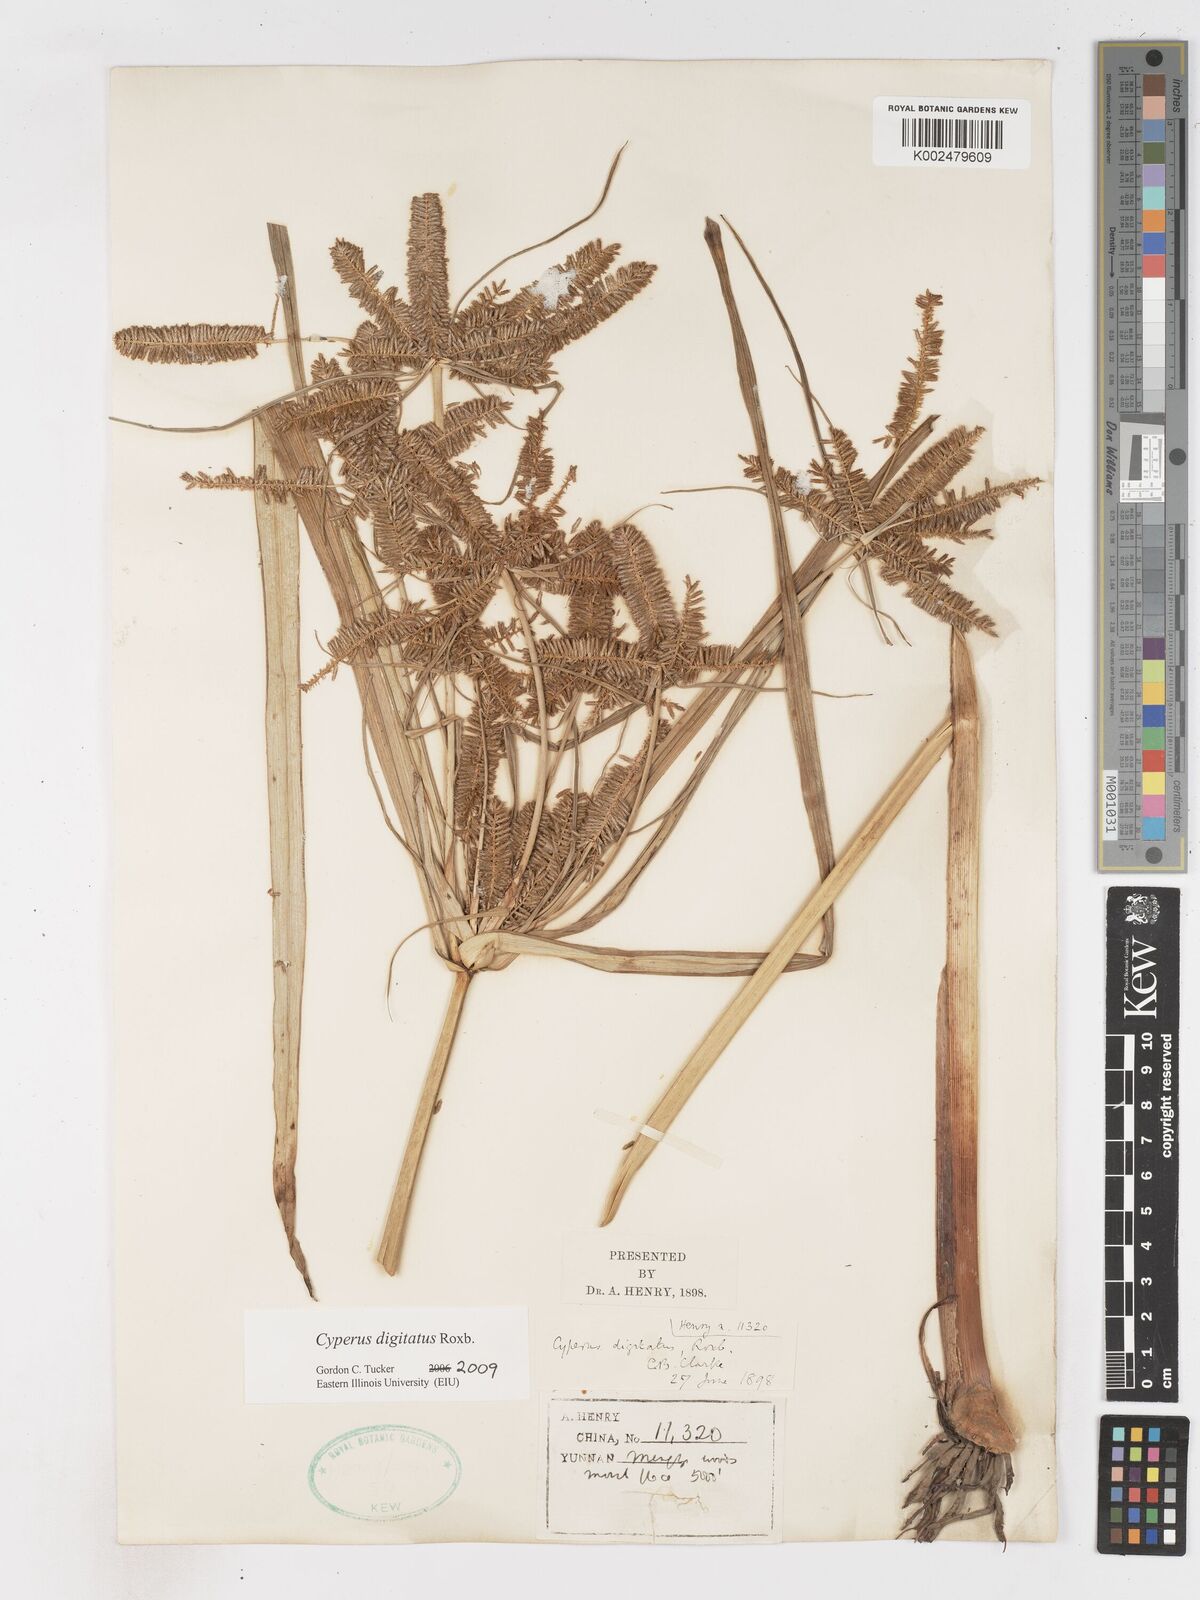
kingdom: Plantae
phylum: Tracheophyta
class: Liliopsida
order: Poales
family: Cyperaceae
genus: Cyperus
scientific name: Cyperus digitatus
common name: Finger flatsedge
